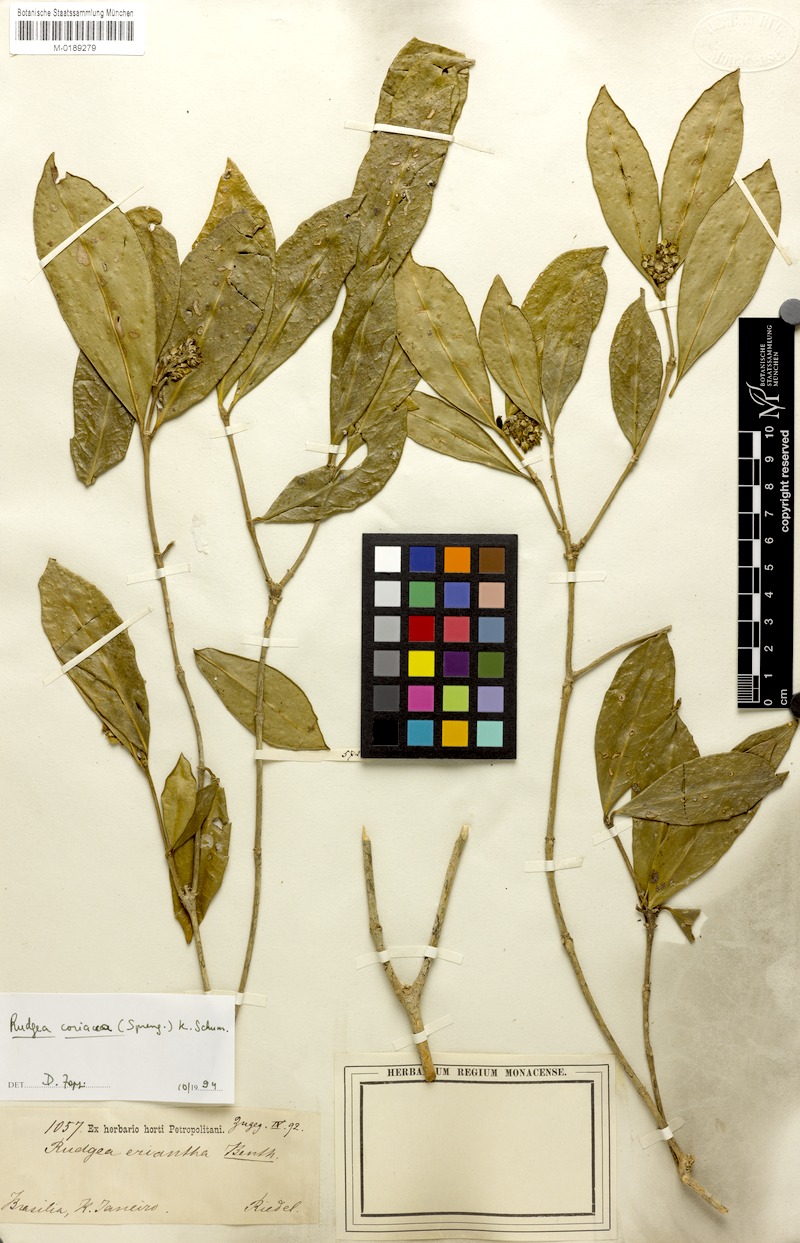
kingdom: Plantae
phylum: Tracheophyta
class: Magnoliopsida
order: Gentianales
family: Rubiaceae
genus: Rudgea
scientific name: Rudgea coriacea
